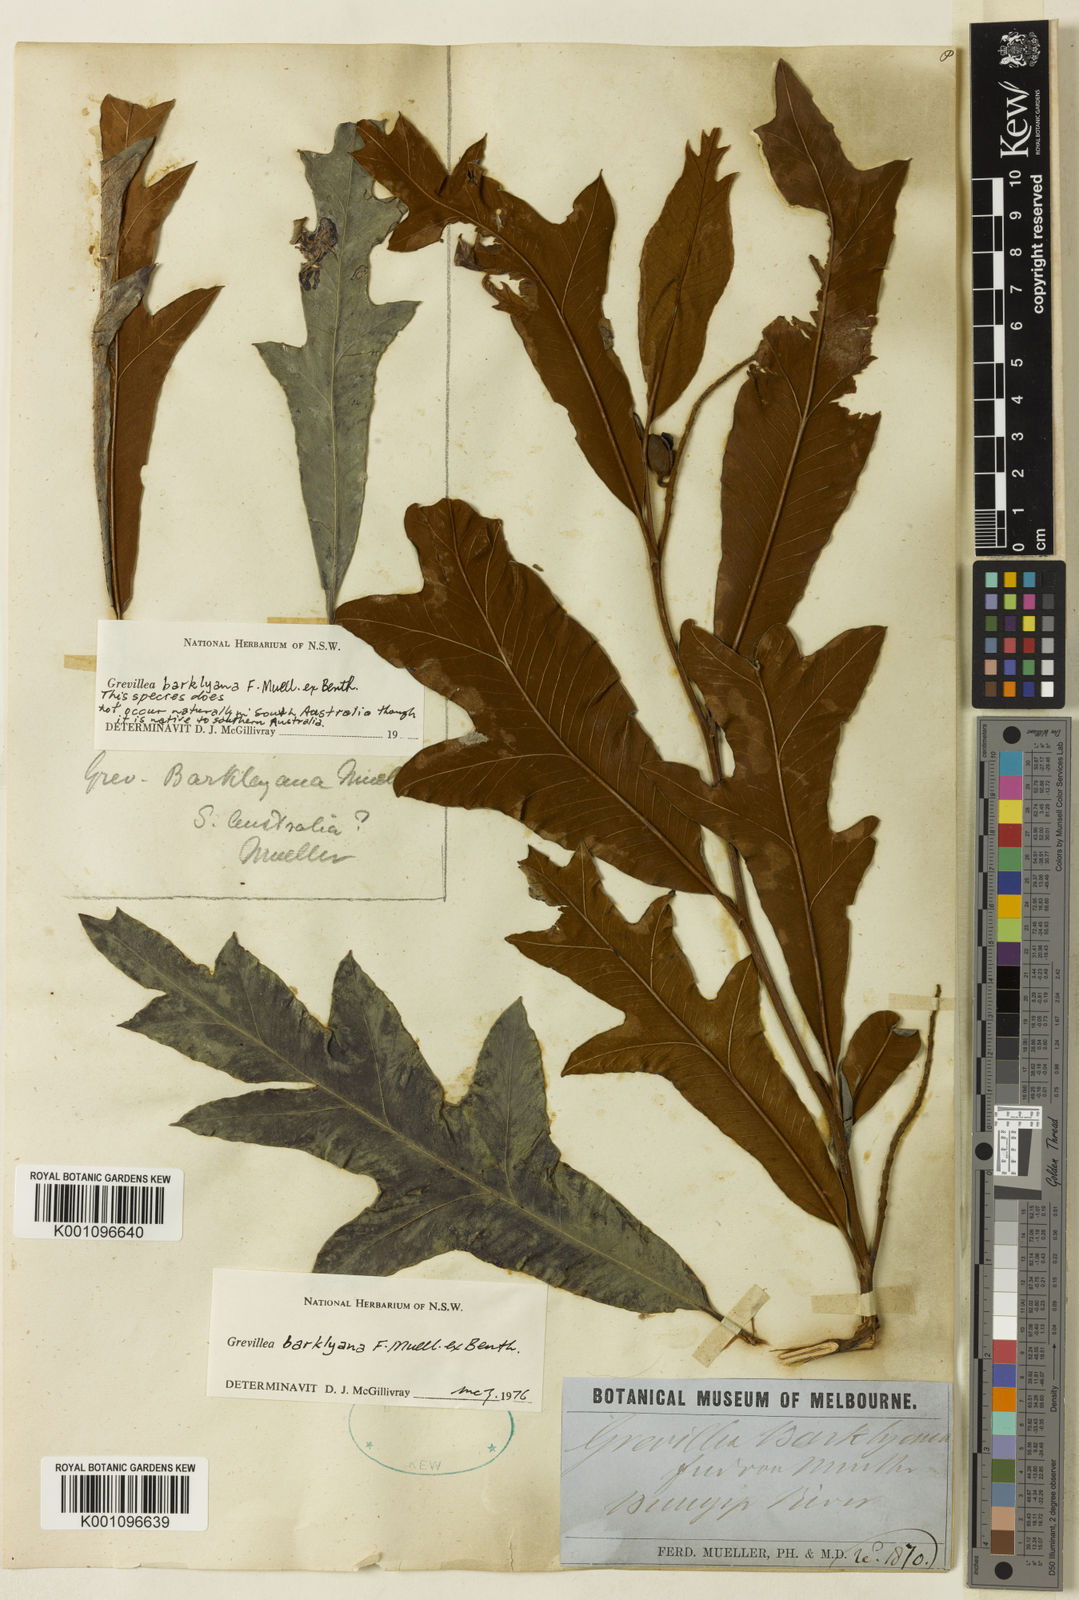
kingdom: Plantae
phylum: Tracheophyta
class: Magnoliopsida
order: Proteales
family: Proteaceae
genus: Grevillea
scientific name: Grevillea barklyana
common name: Large-leaf grevillea
